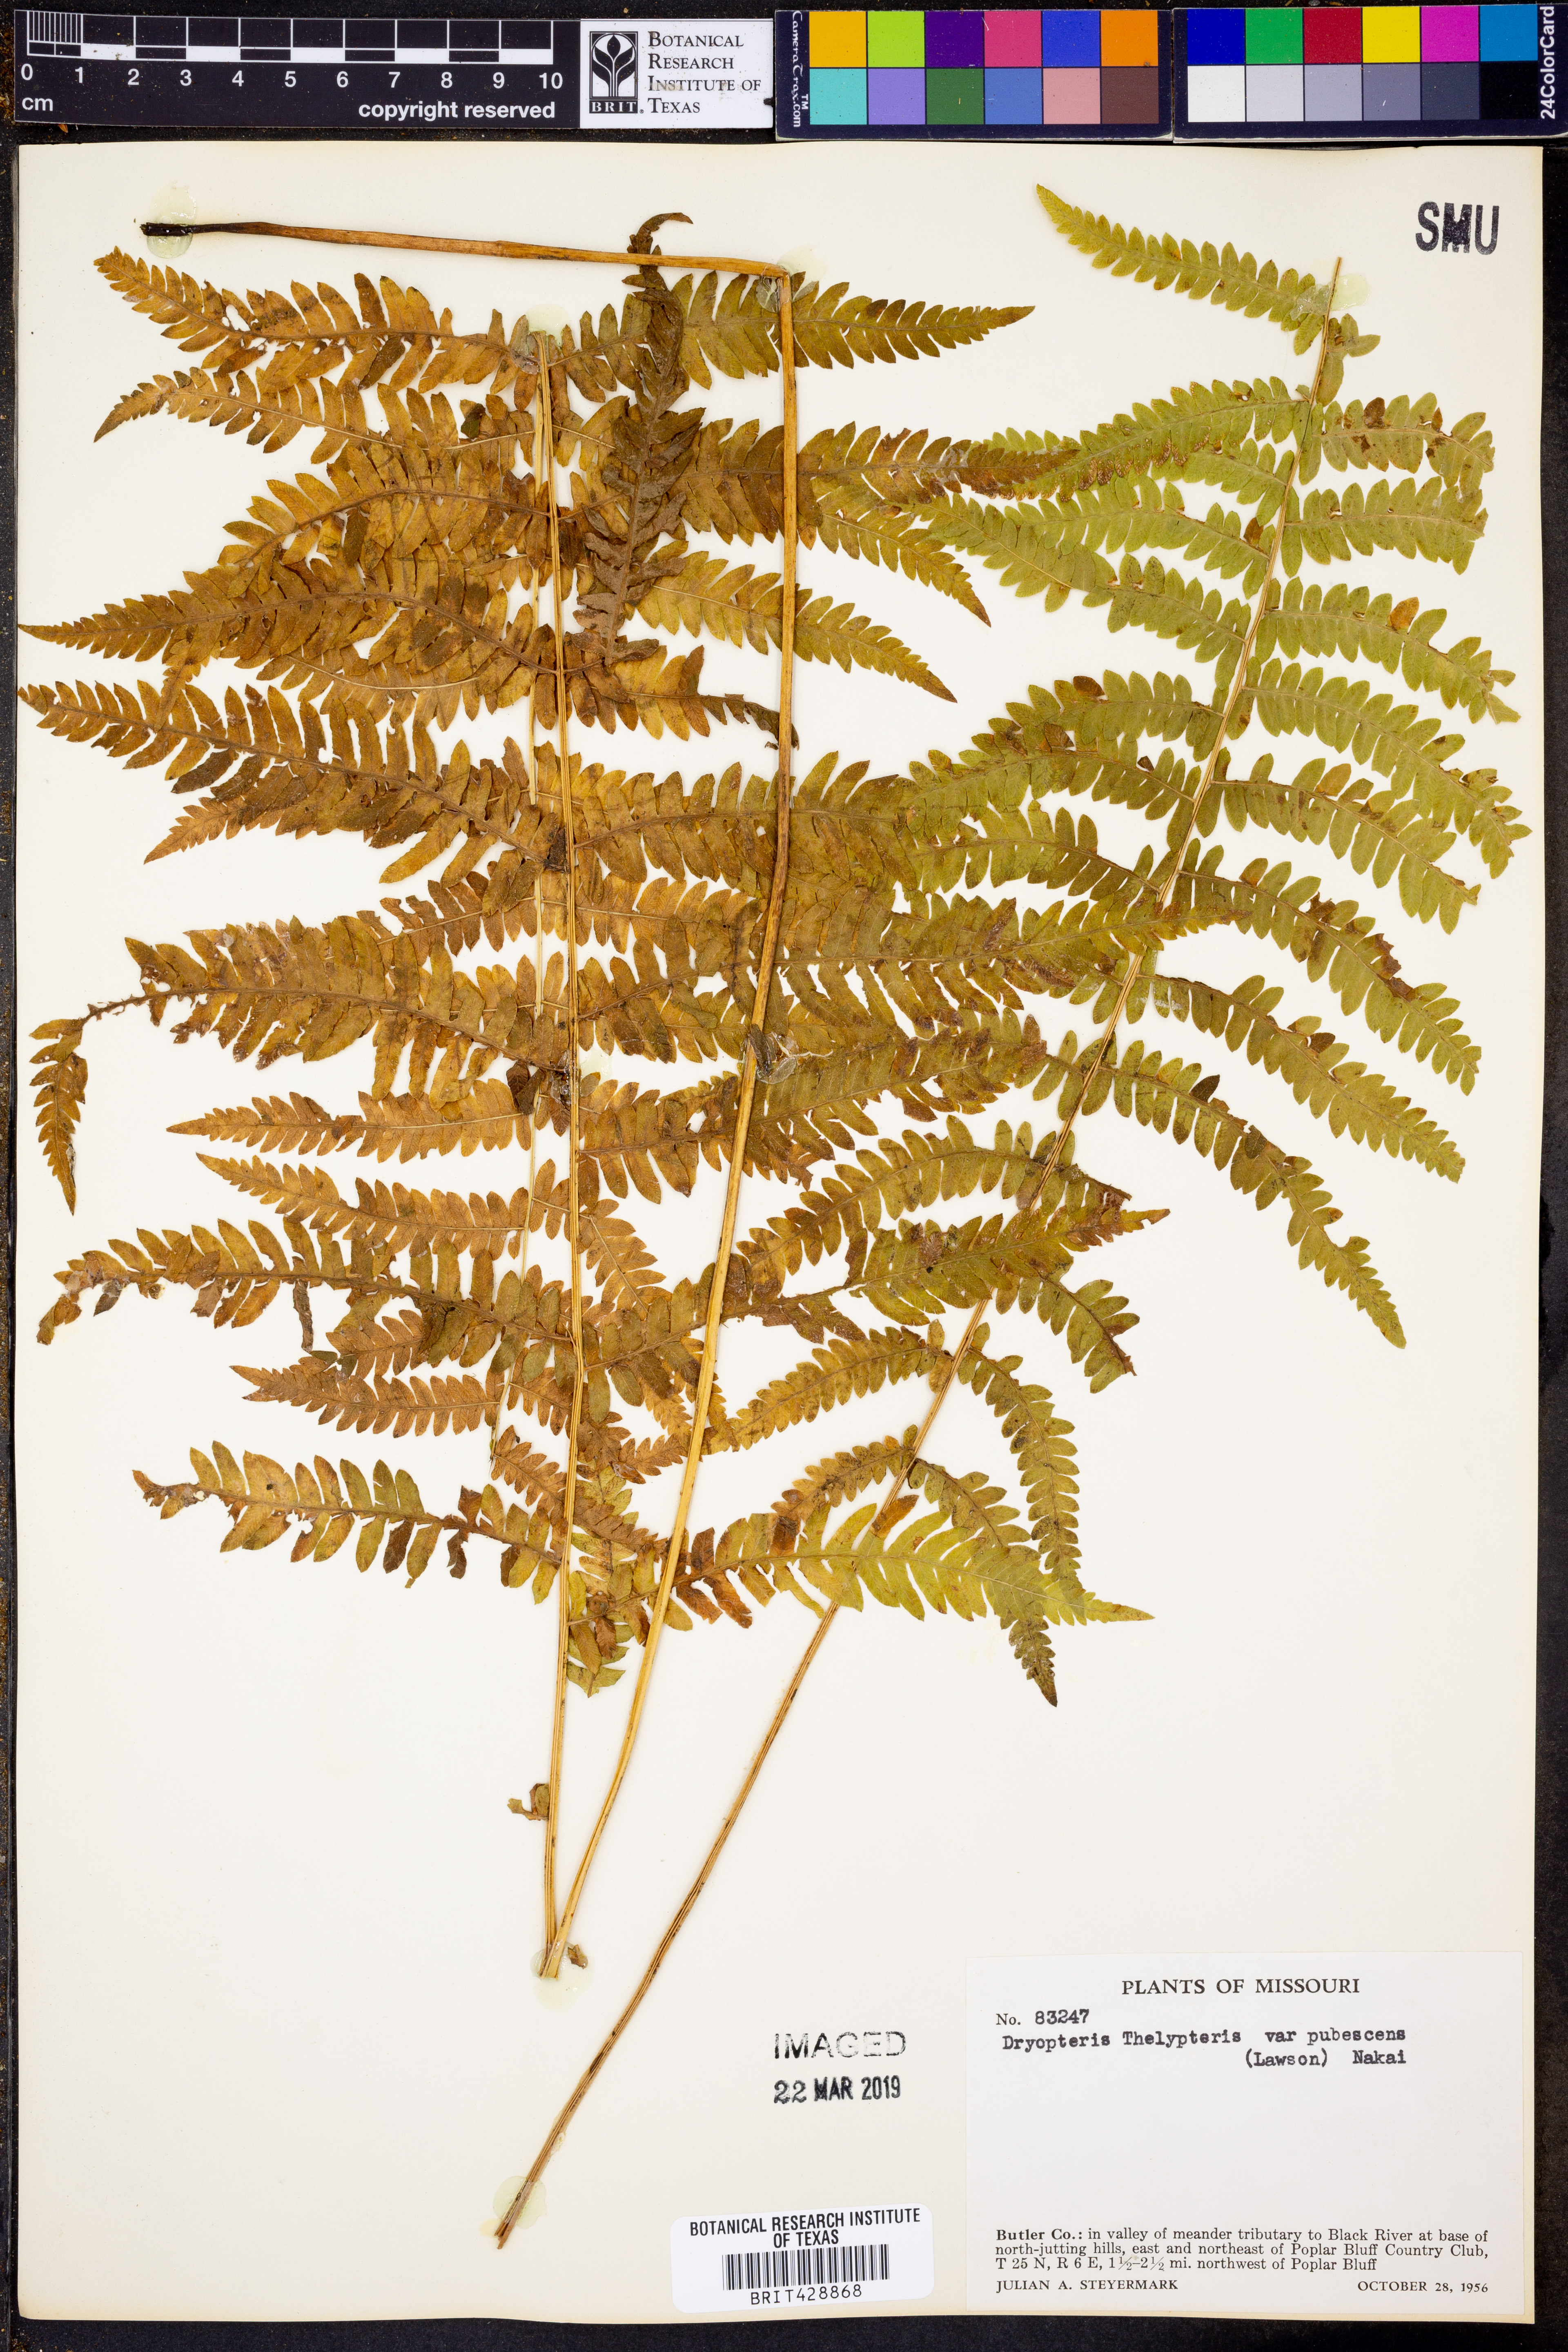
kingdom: Plantae
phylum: Tracheophyta
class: Polypodiopsida
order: Polypodiales
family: Thelypteridaceae
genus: Thelypteris
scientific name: Thelypteris palustris
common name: Marsh fern
